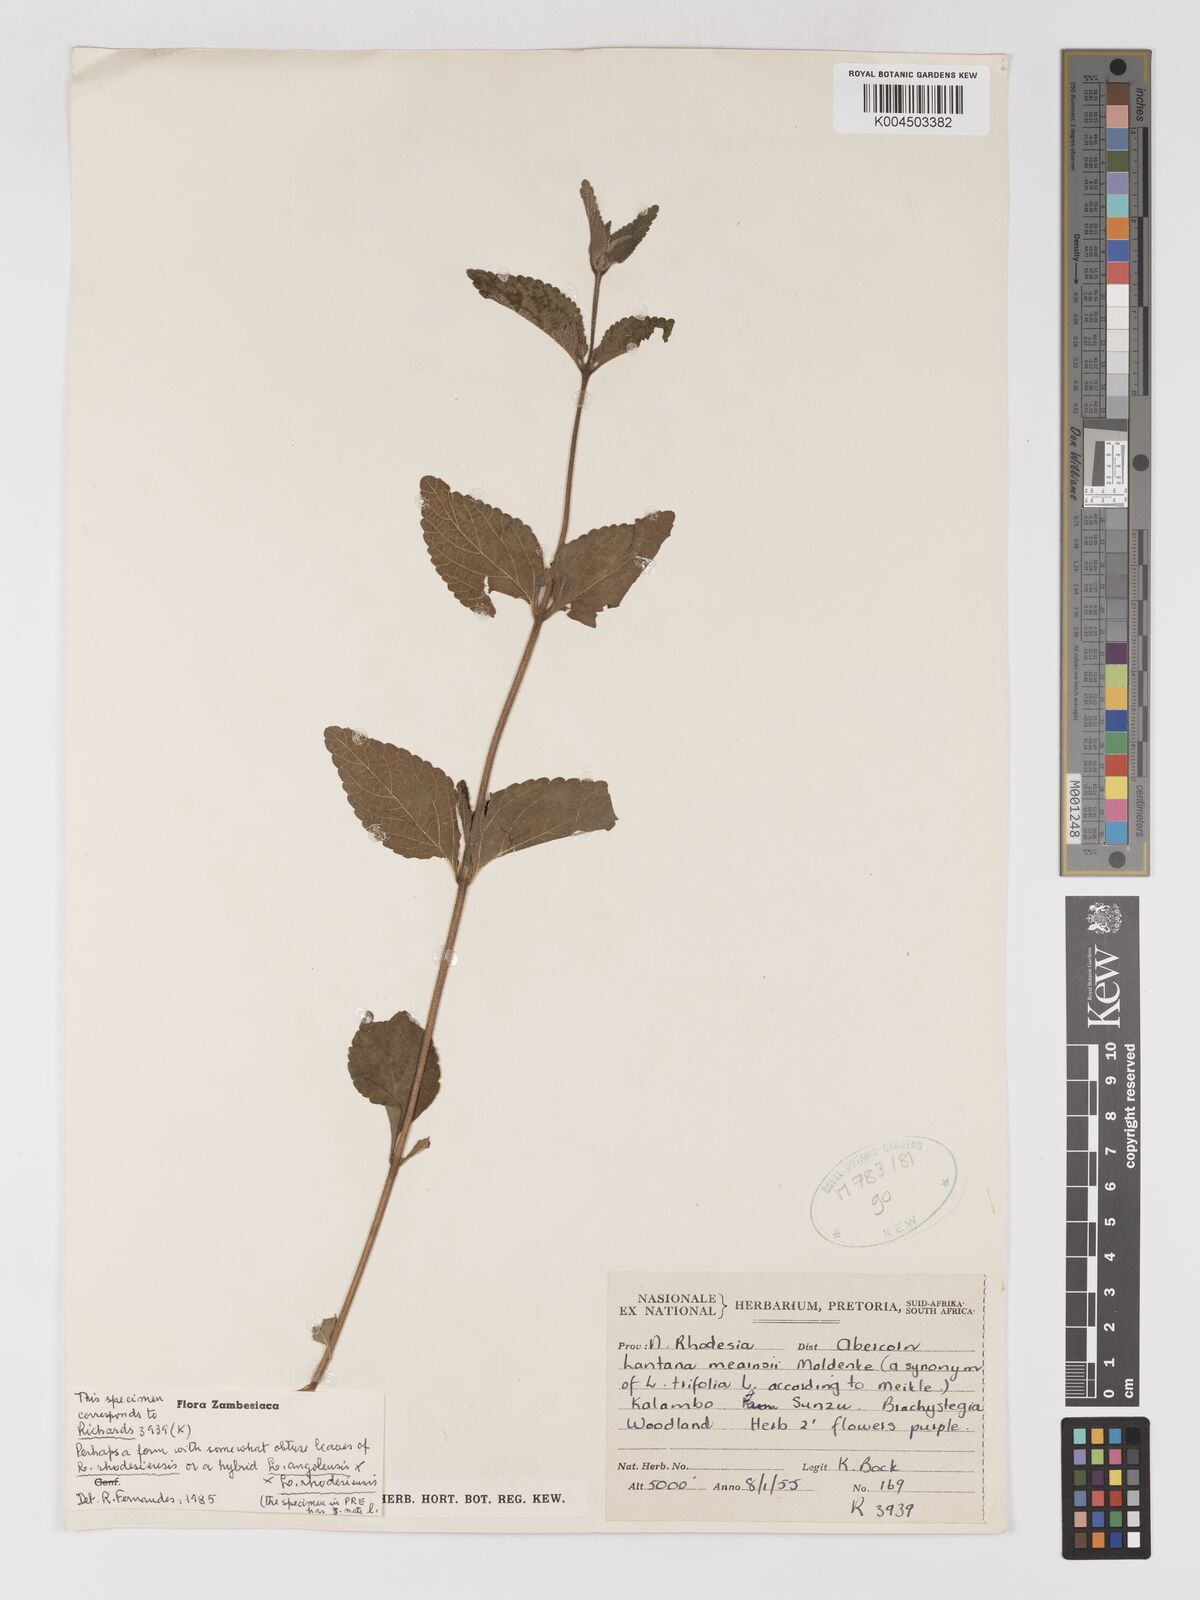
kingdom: Plantae
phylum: Tracheophyta
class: Magnoliopsida
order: Lamiales
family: Verbenaceae
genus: Lantana
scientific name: Lantana ukambensis
